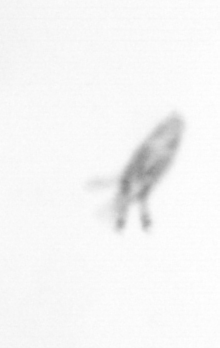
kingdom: Animalia
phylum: Arthropoda
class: Copepoda
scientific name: Copepoda
